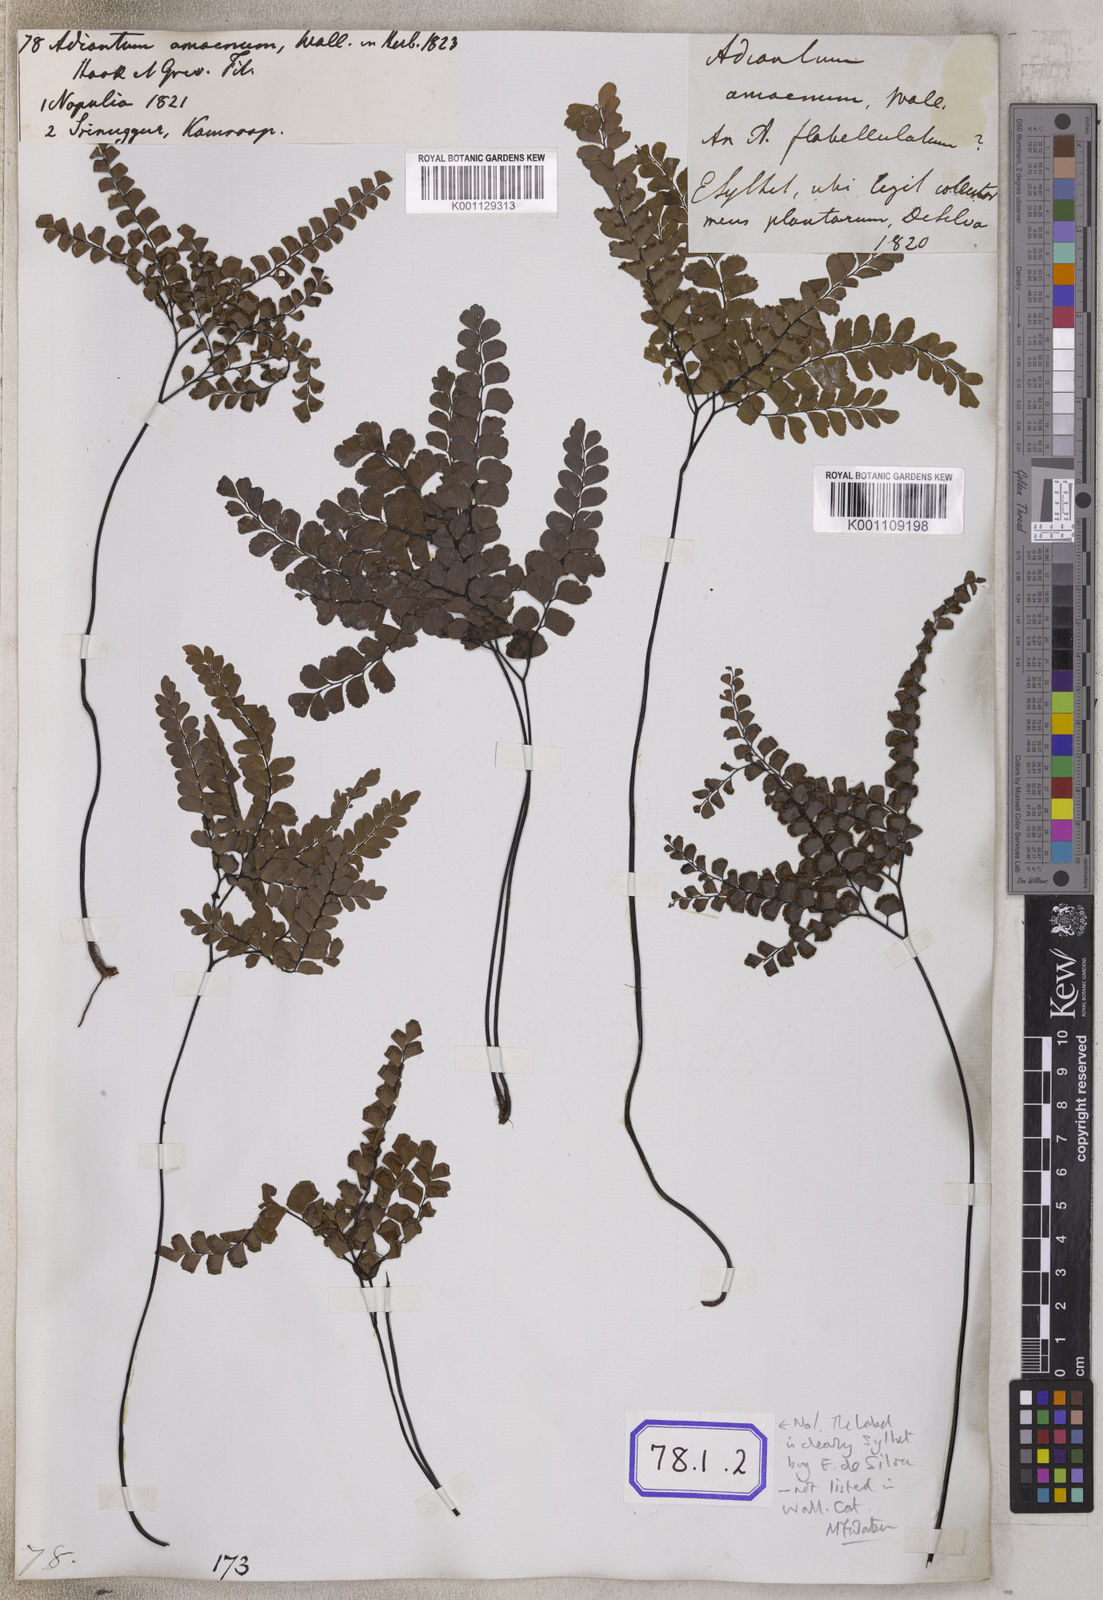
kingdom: Plantae
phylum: Tracheophyta
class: Polypodiopsida
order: Polypodiales
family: Pteridaceae
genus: Adiantum
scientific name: Adiantum flabellulatum
